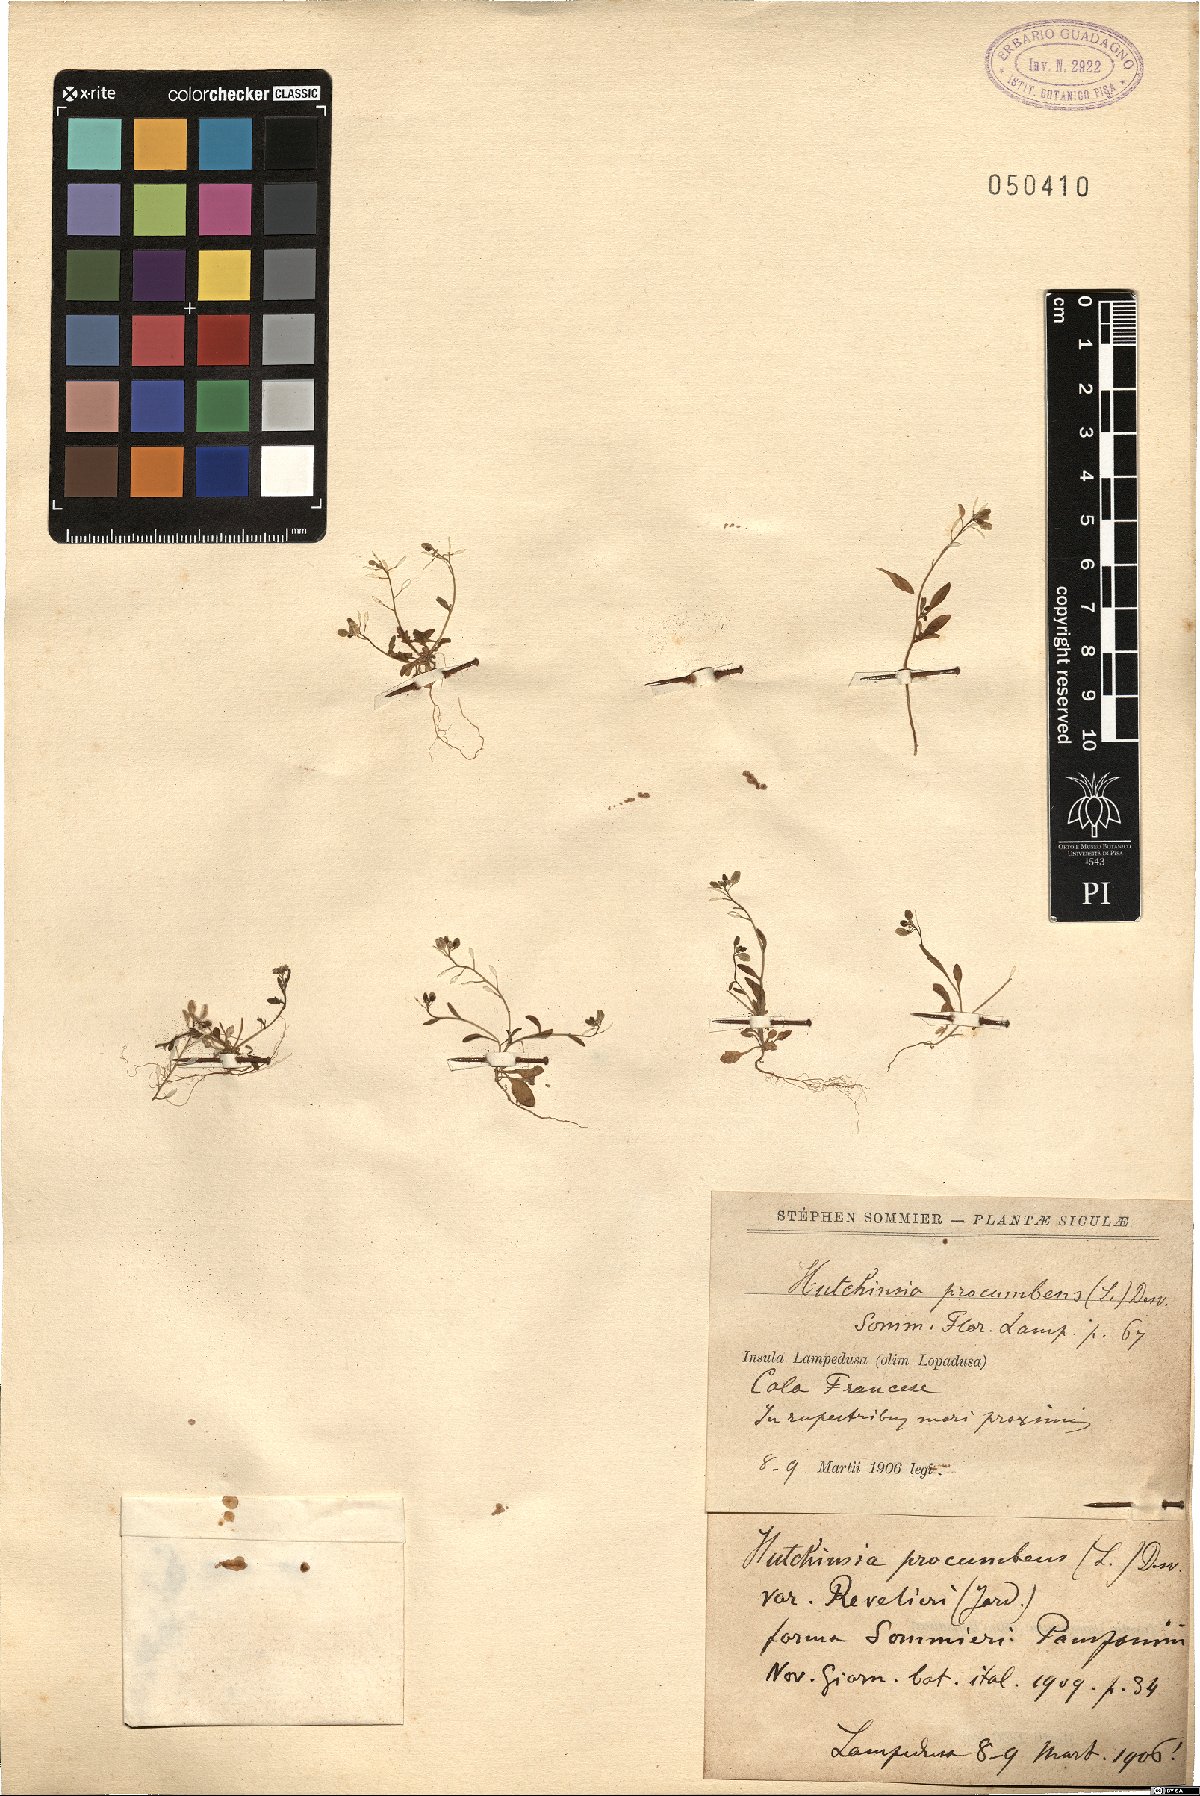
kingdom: Plantae
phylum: Tracheophyta
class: Magnoliopsida
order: Brassicales
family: Brassicaceae
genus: Hornungia
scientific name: Hornungia procumbens
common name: Oval purse
